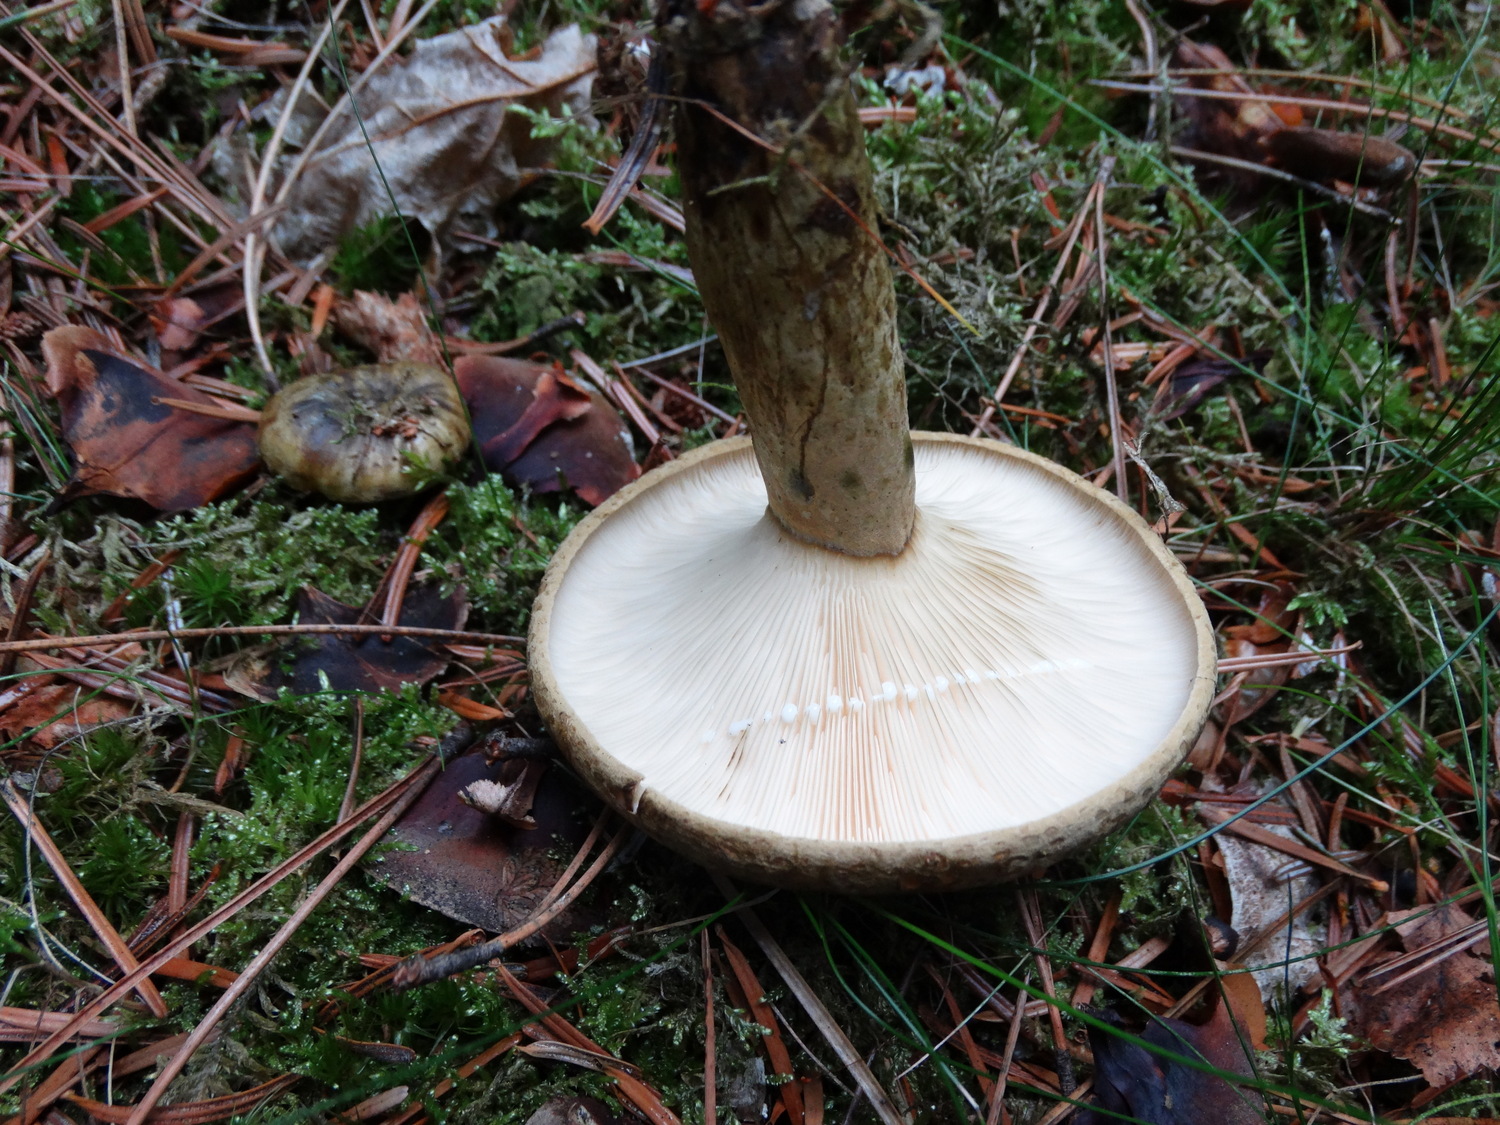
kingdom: Fungi
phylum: Basidiomycota
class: Agaricomycetes
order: Russulales
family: Russulaceae
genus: Lactarius
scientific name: Lactarius necator
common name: manddraber-mælkehat
